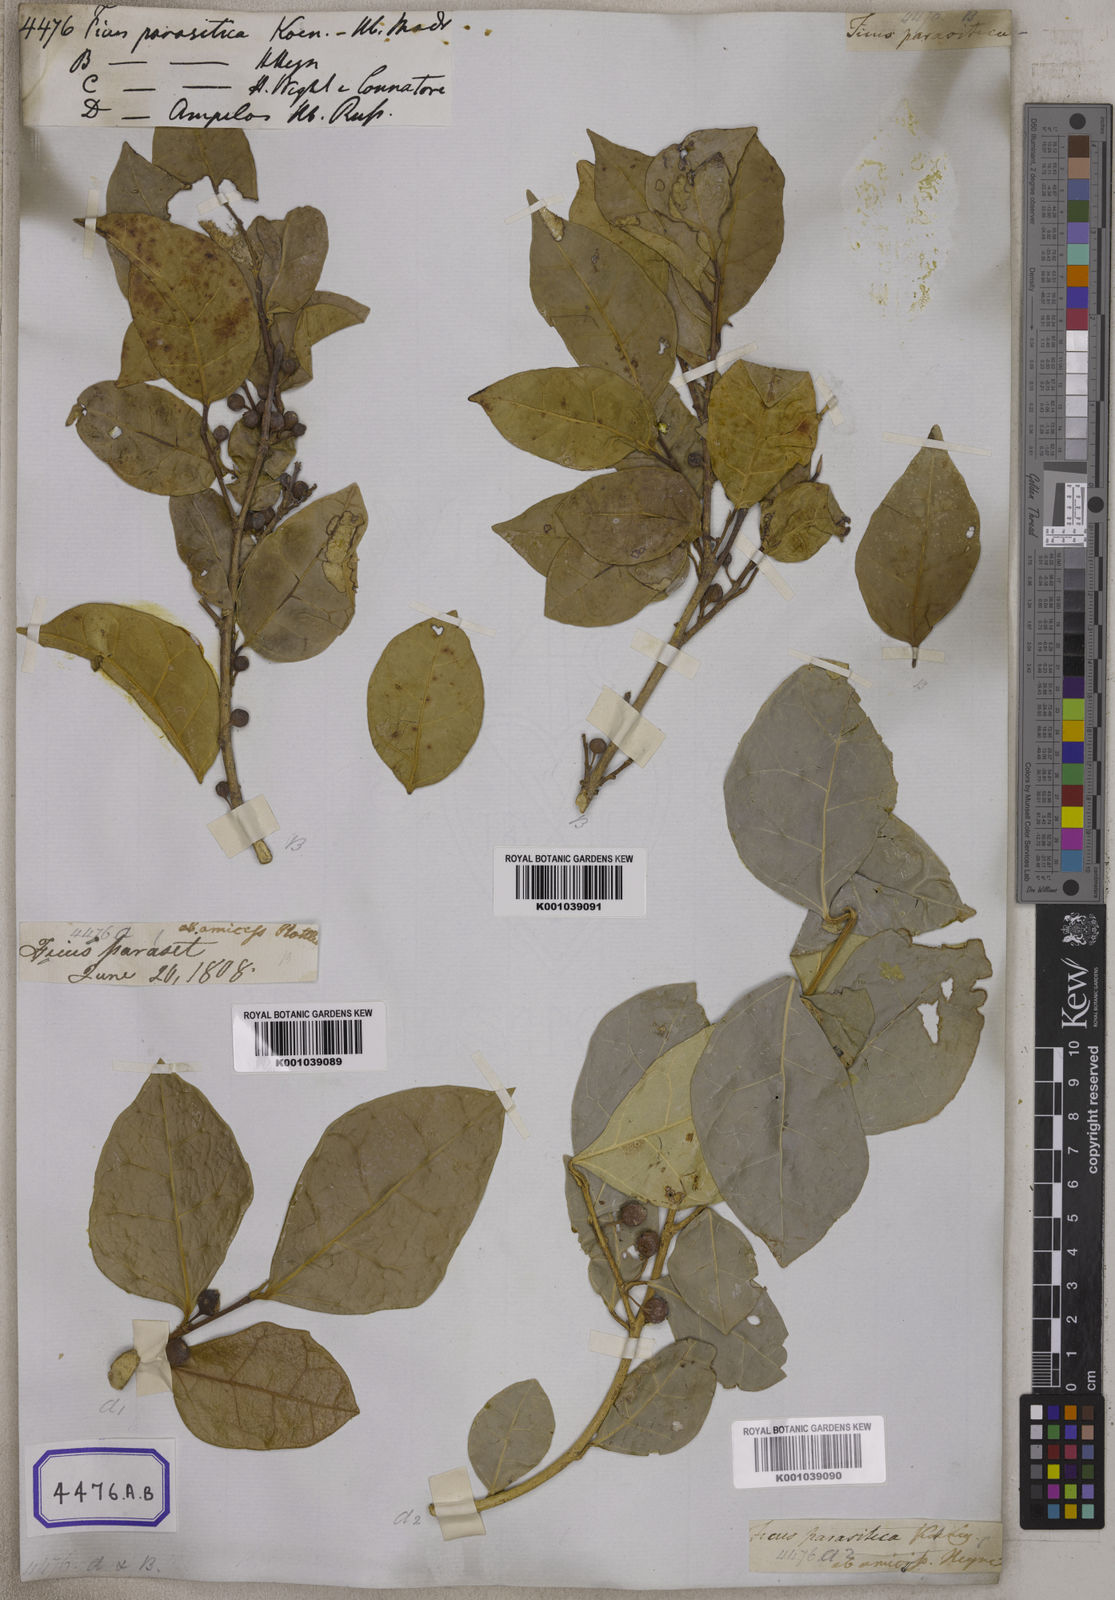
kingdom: Plantae
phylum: Tracheophyta
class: Magnoliopsida
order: Rosales
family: Moraceae
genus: Ficus
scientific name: Ficus tinctoria
